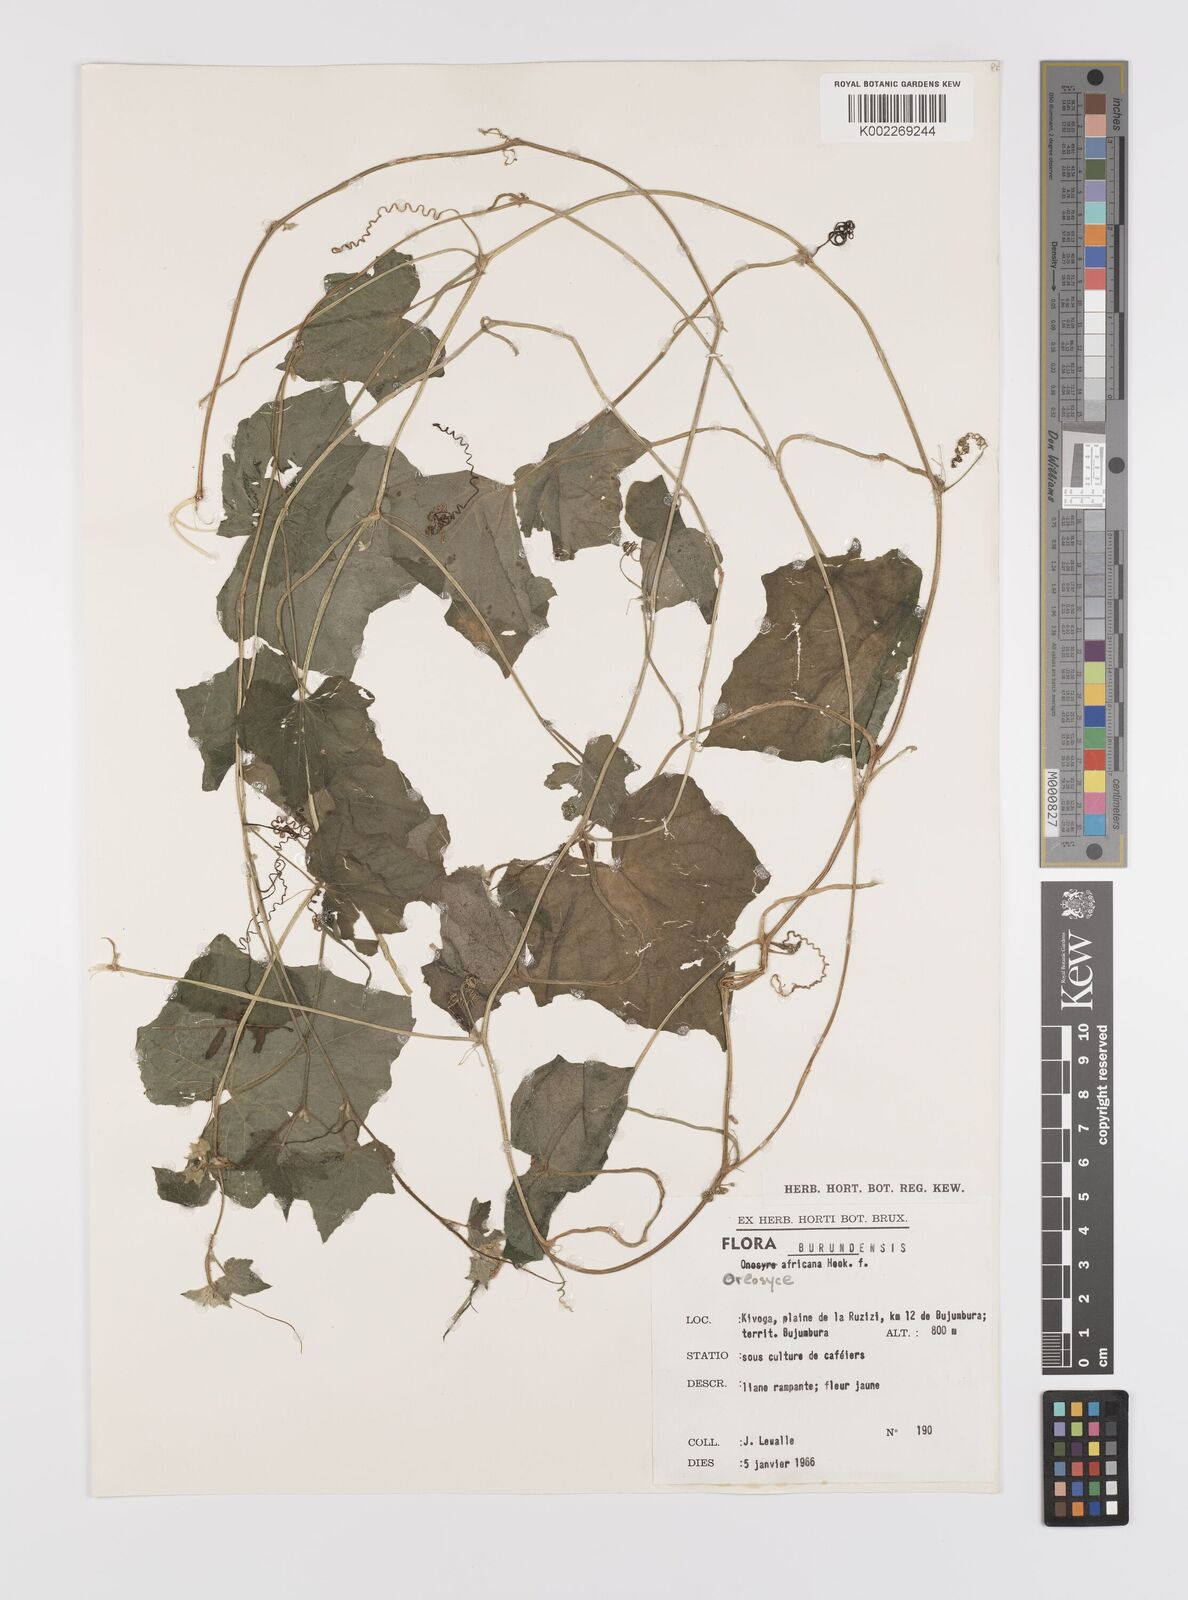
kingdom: Plantae
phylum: Tracheophyta
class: Magnoliopsida
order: Cucurbitales
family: Cucurbitaceae
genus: Cucumis
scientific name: Cucumis oreosyce
